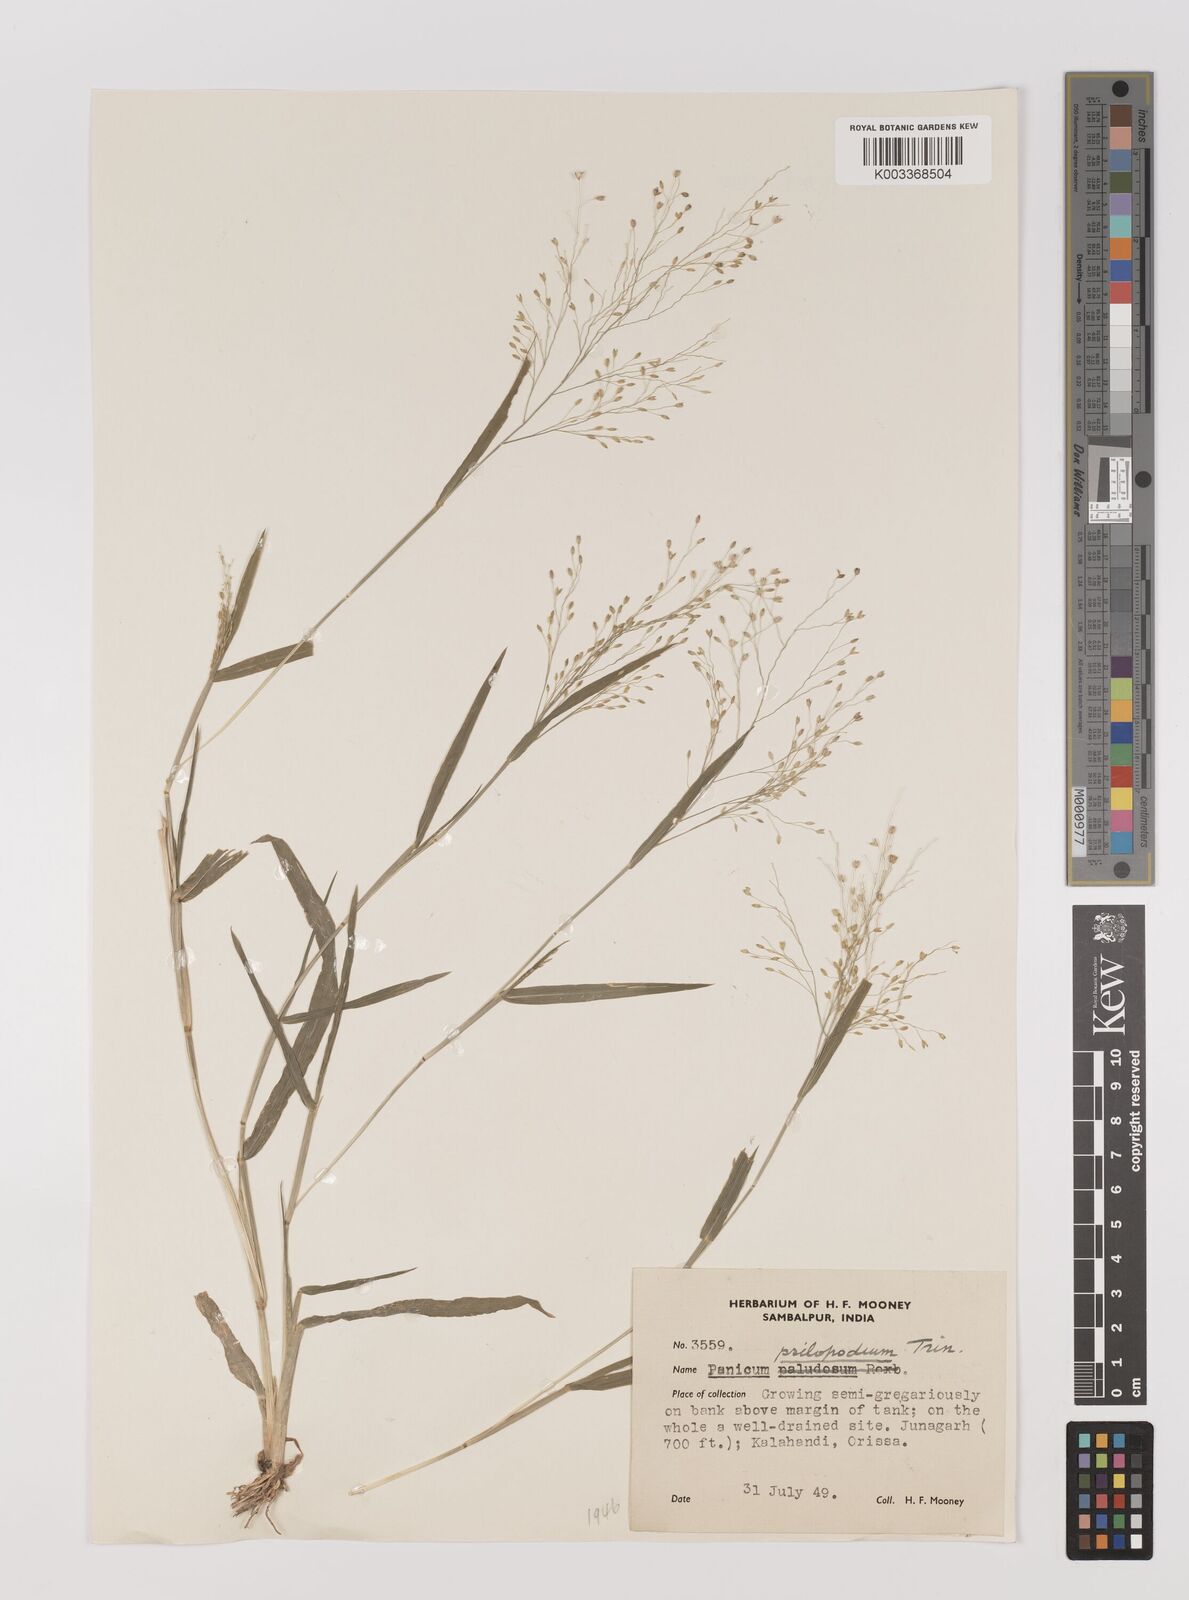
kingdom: Plantae
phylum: Tracheophyta
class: Liliopsida
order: Poales
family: Poaceae
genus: Panicum
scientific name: Panicum sumatrense
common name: Little millet
